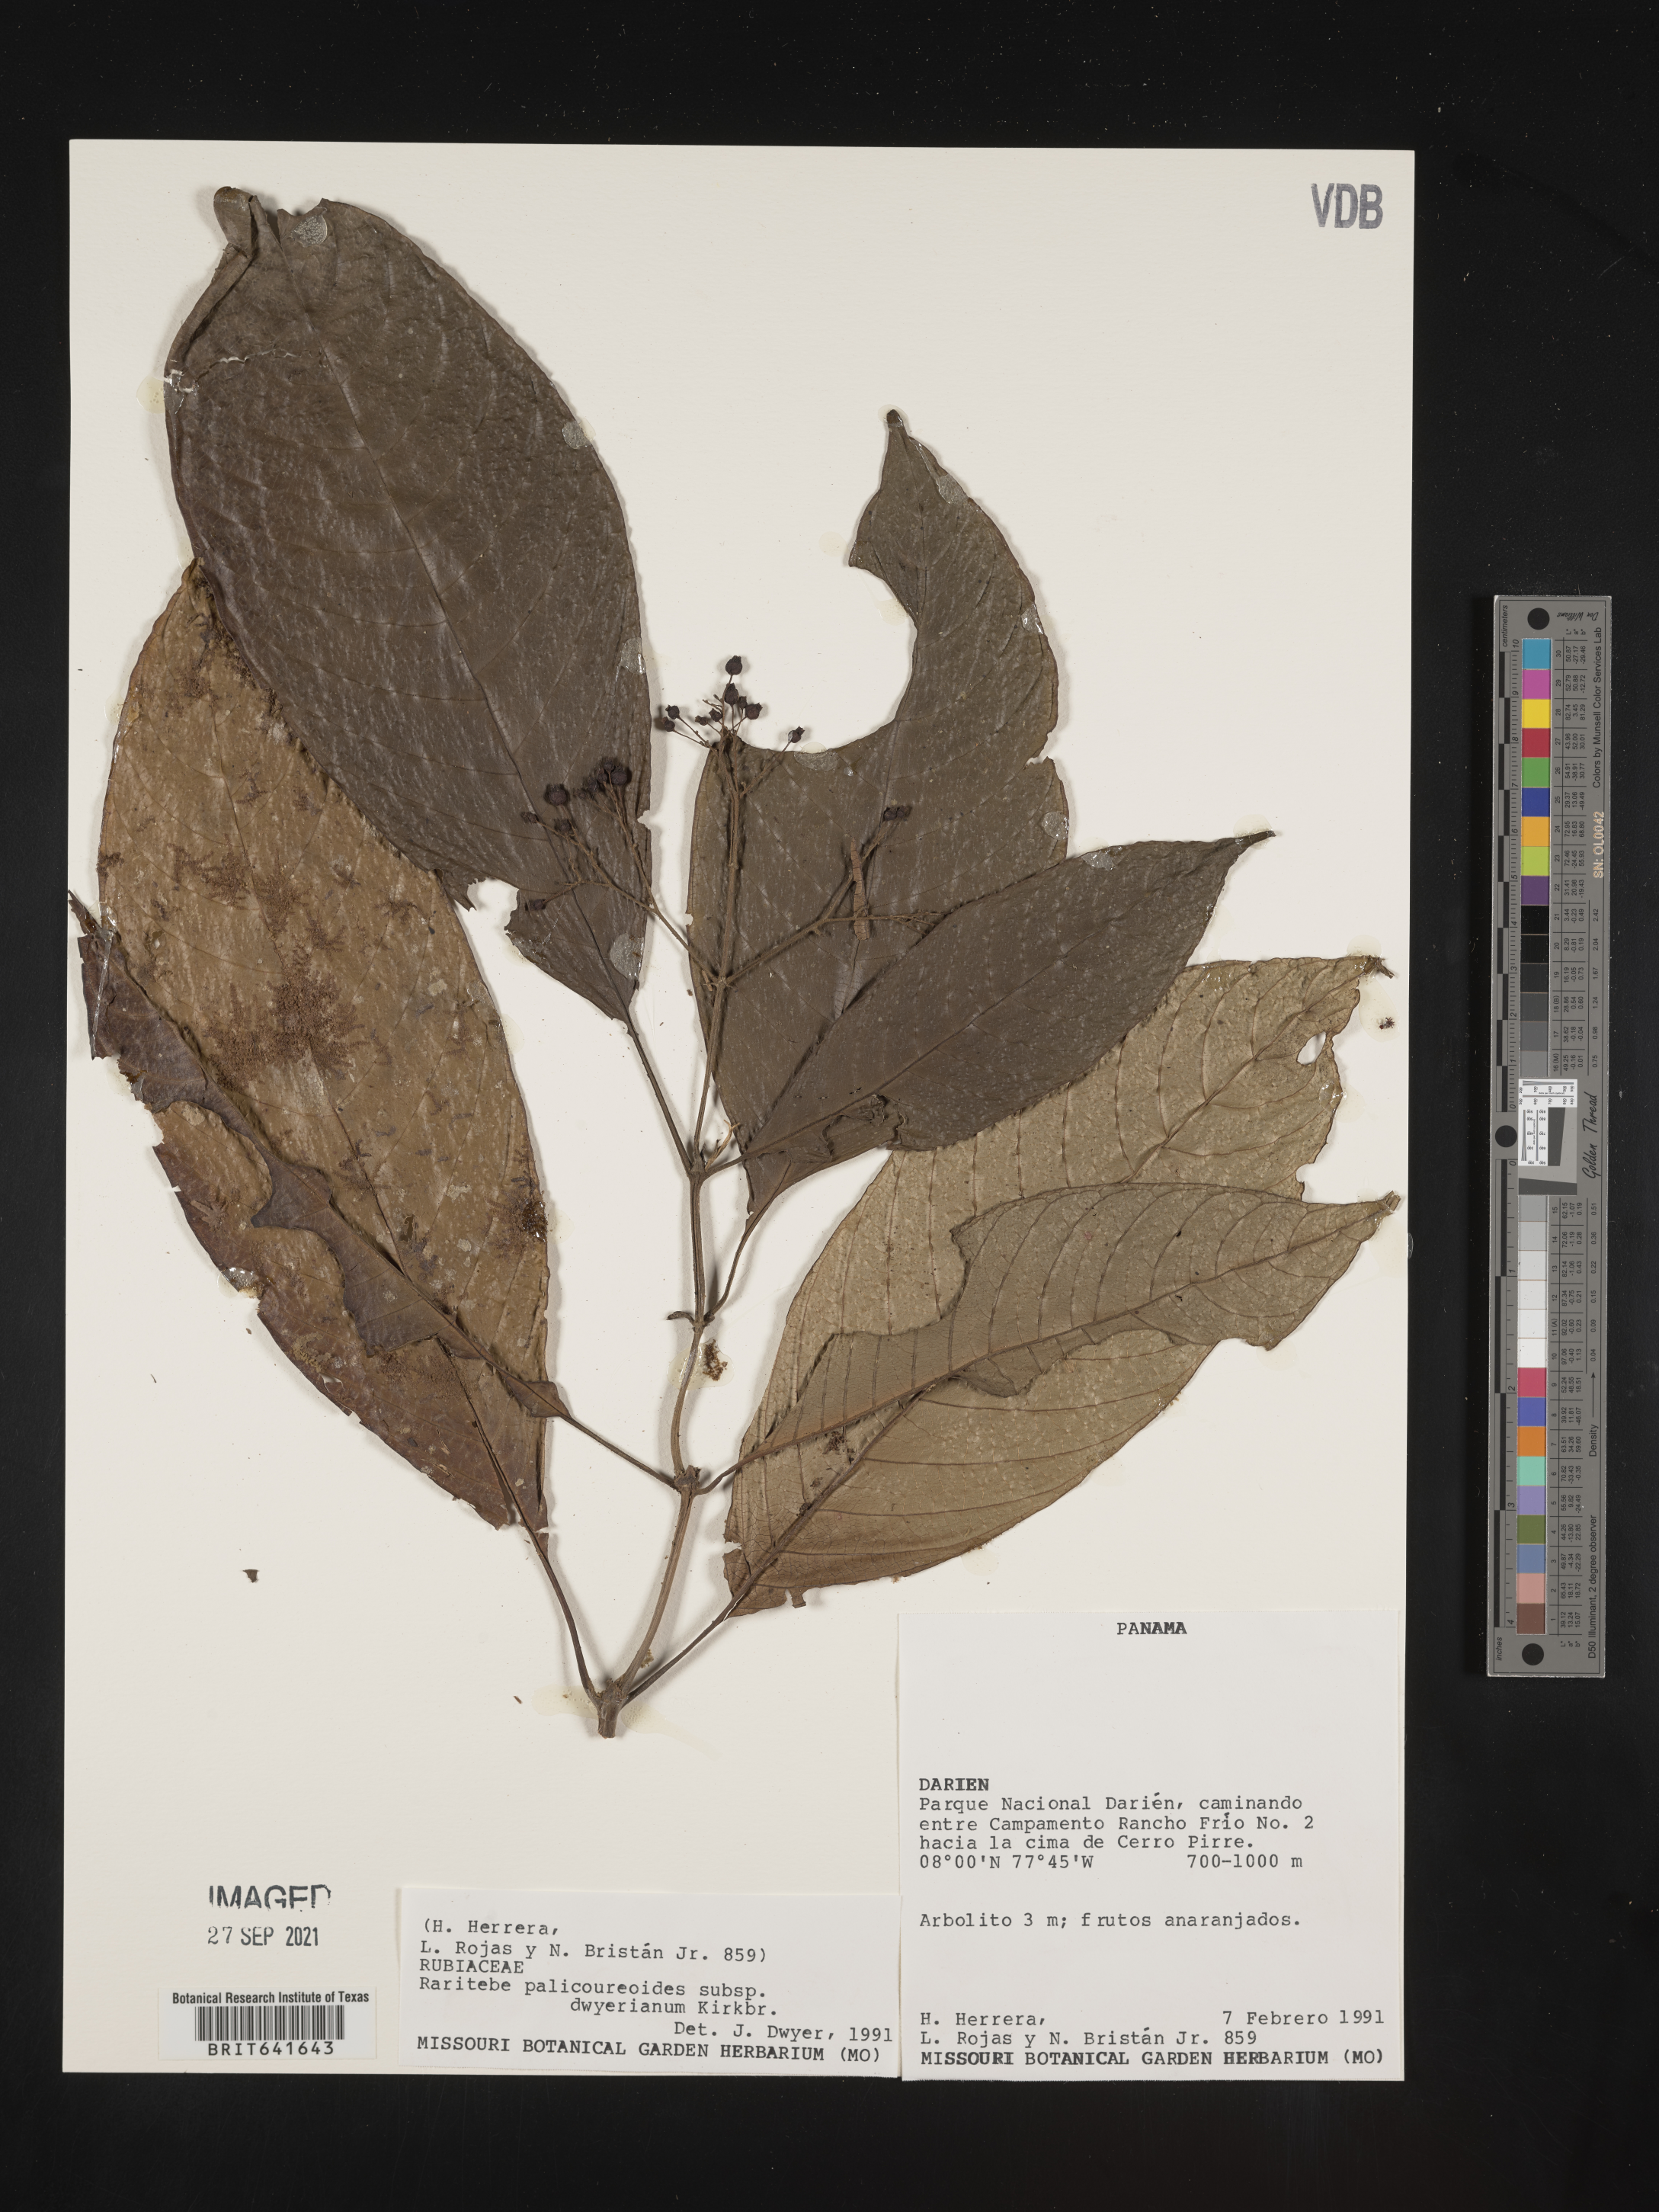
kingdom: Plantae
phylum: Tracheophyta
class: Magnoliopsida
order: Gentianales
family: Rubiaceae
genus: Raritebe
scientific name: Raritebe
